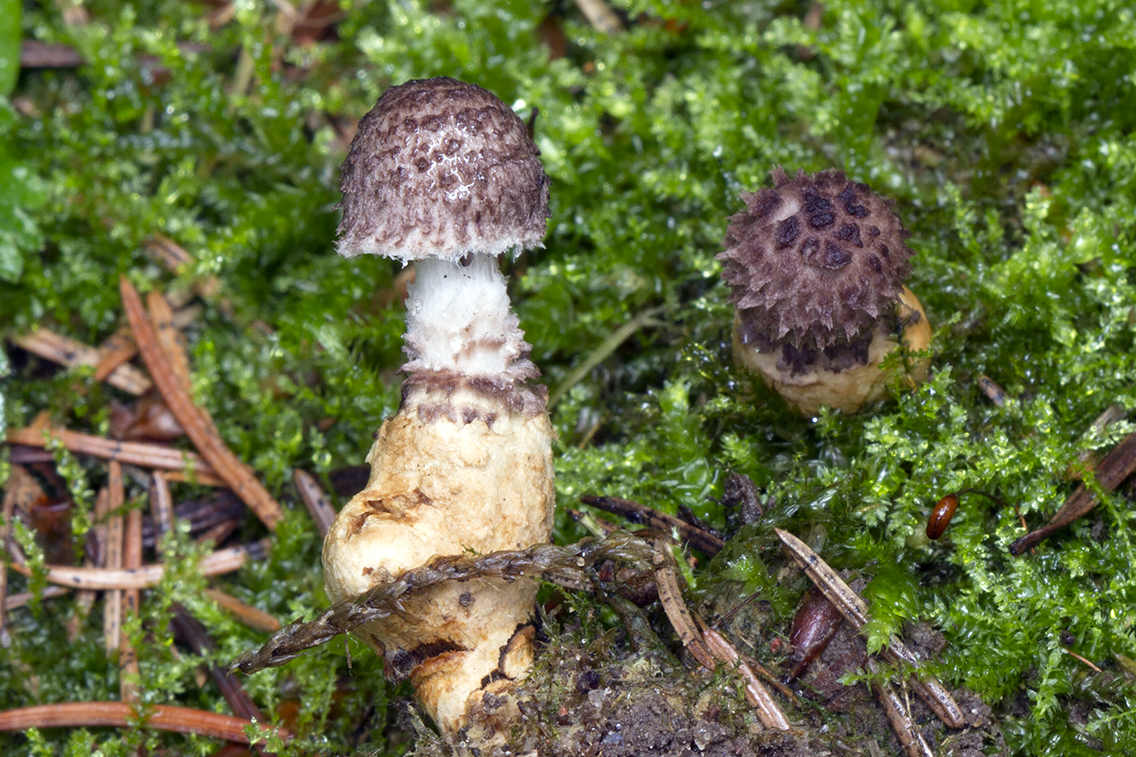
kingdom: Fungi
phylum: Basidiomycota
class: Agaricomycetes
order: Agaricales
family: Squamanitaceae
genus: Dissoderma
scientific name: Dissoderma odoratum
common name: vellugtende knoldfod
